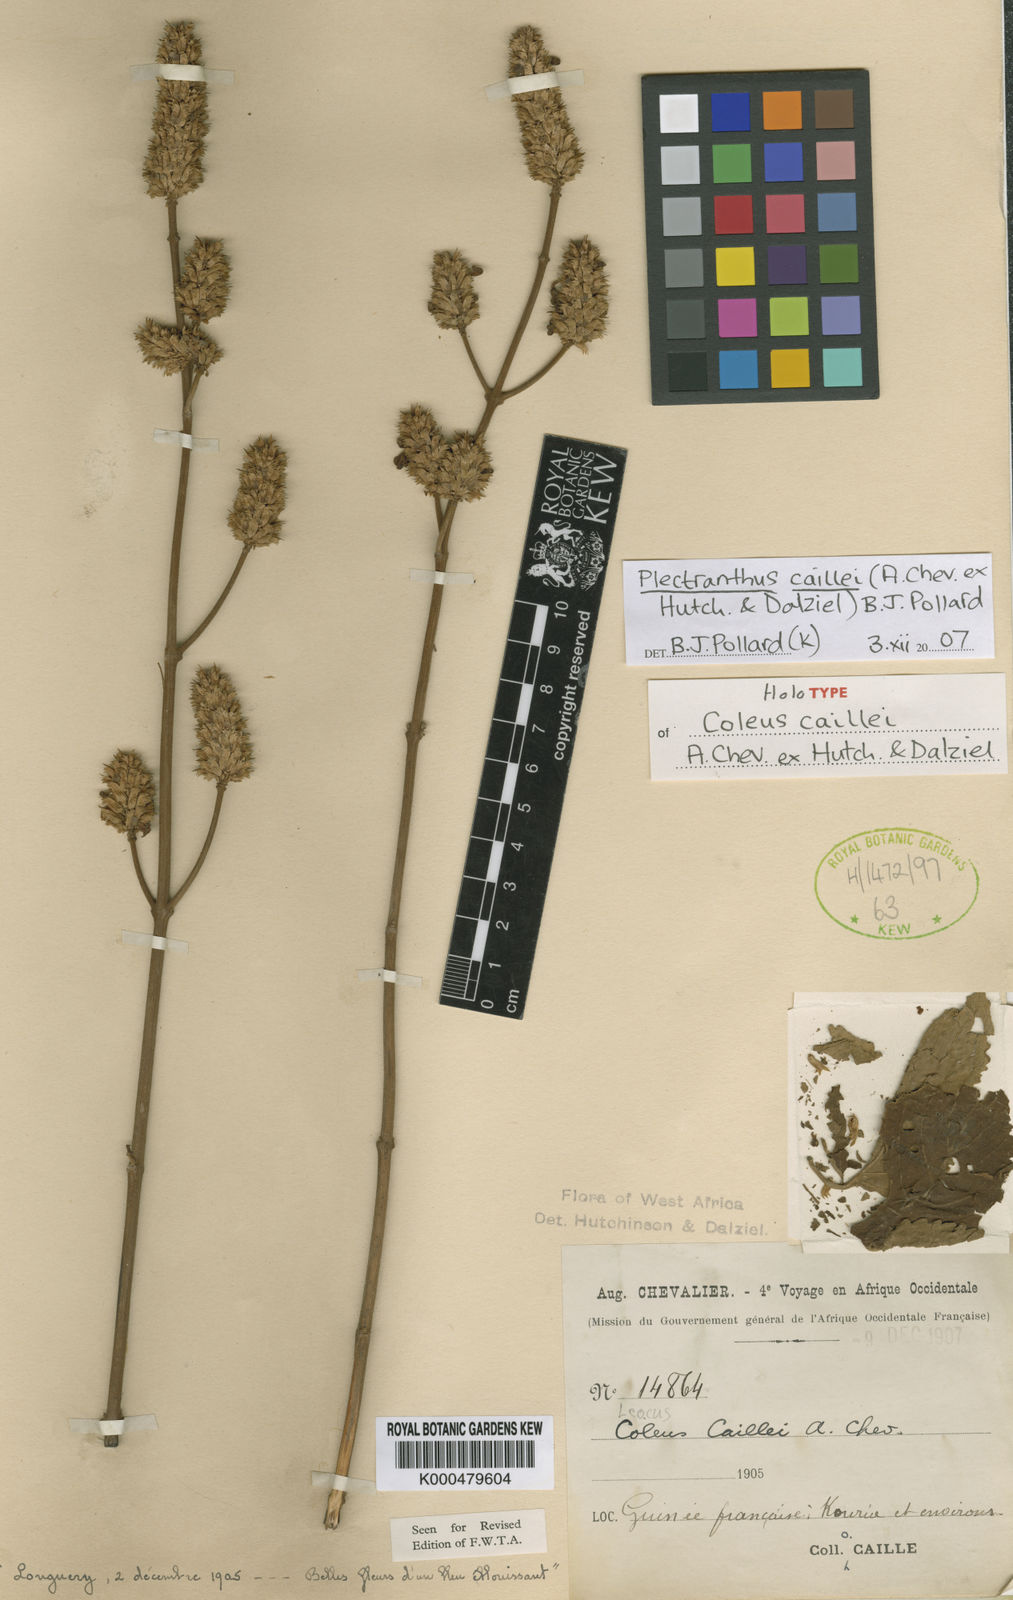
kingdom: Plantae
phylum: Tracheophyta
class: Magnoliopsida
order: Lamiales
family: Lamiaceae
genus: Coleus
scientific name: Coleus caillei
